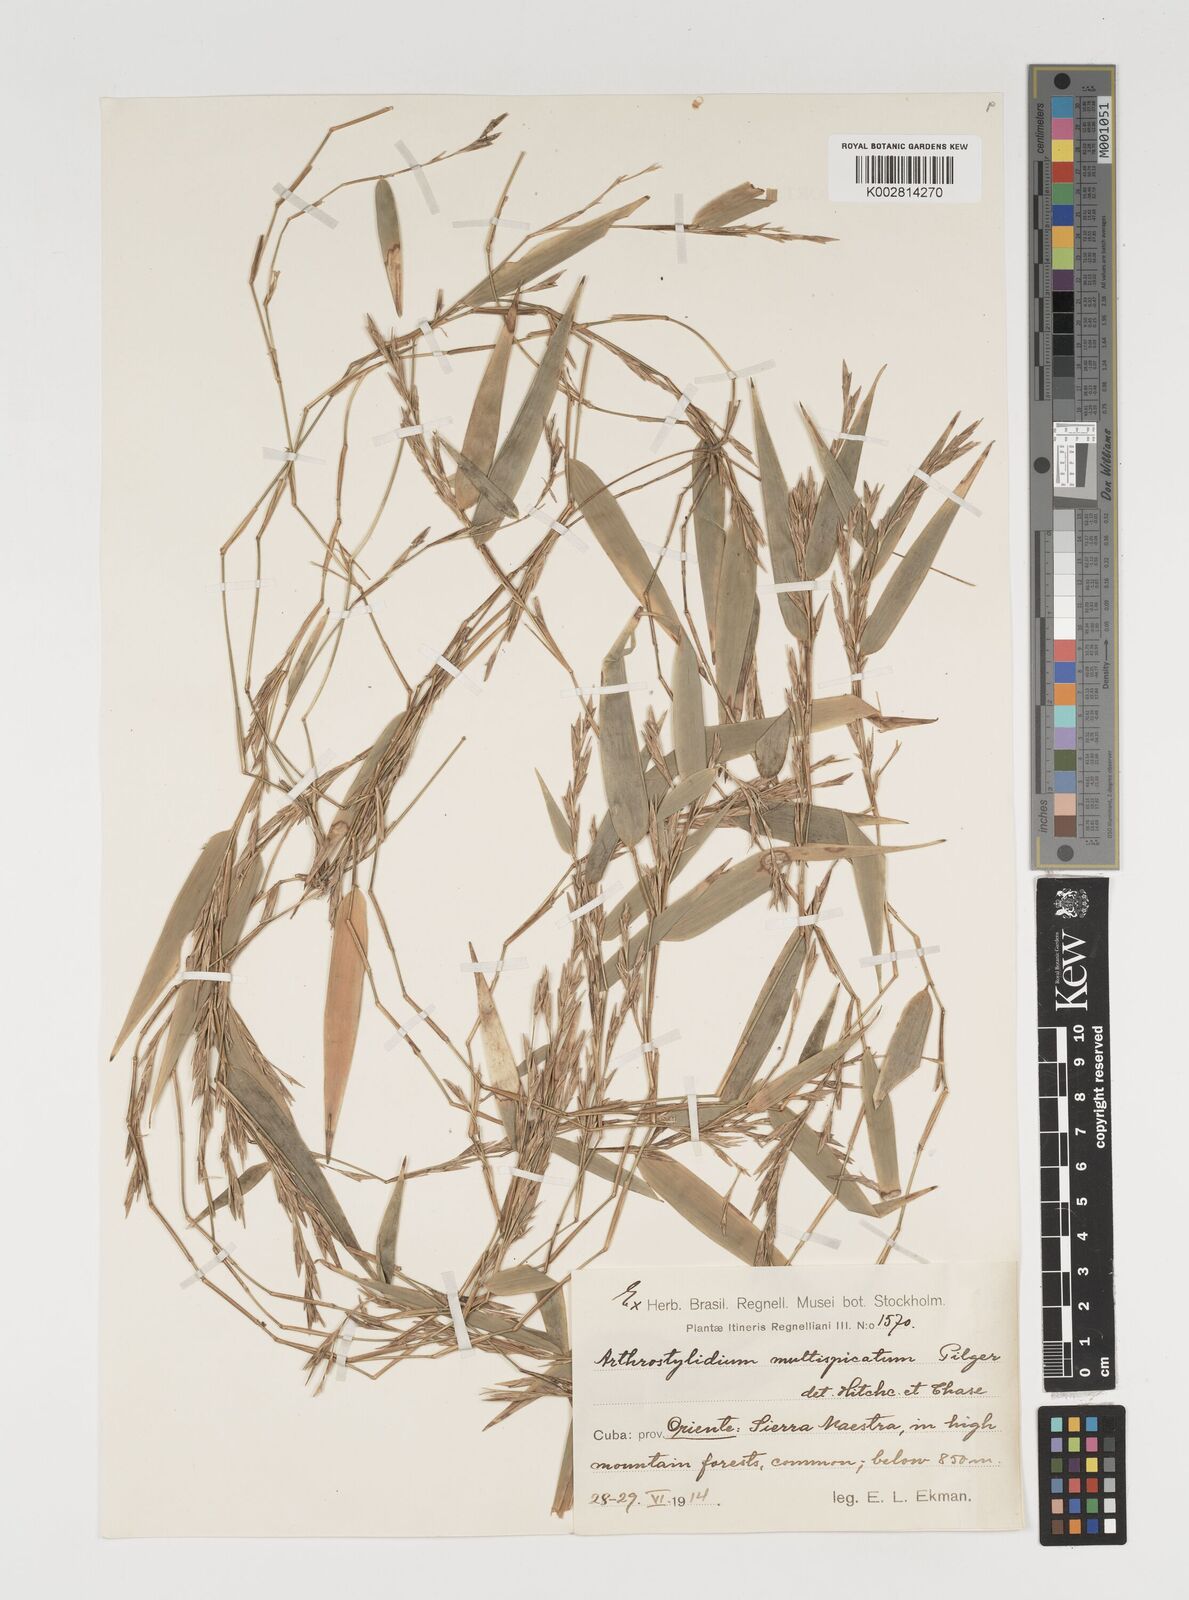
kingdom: Plantae
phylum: Tracheophyta
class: Liliopsida
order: Poales
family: Poaceae
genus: Arthrostylidium
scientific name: Arthrostylidium multispicatum
